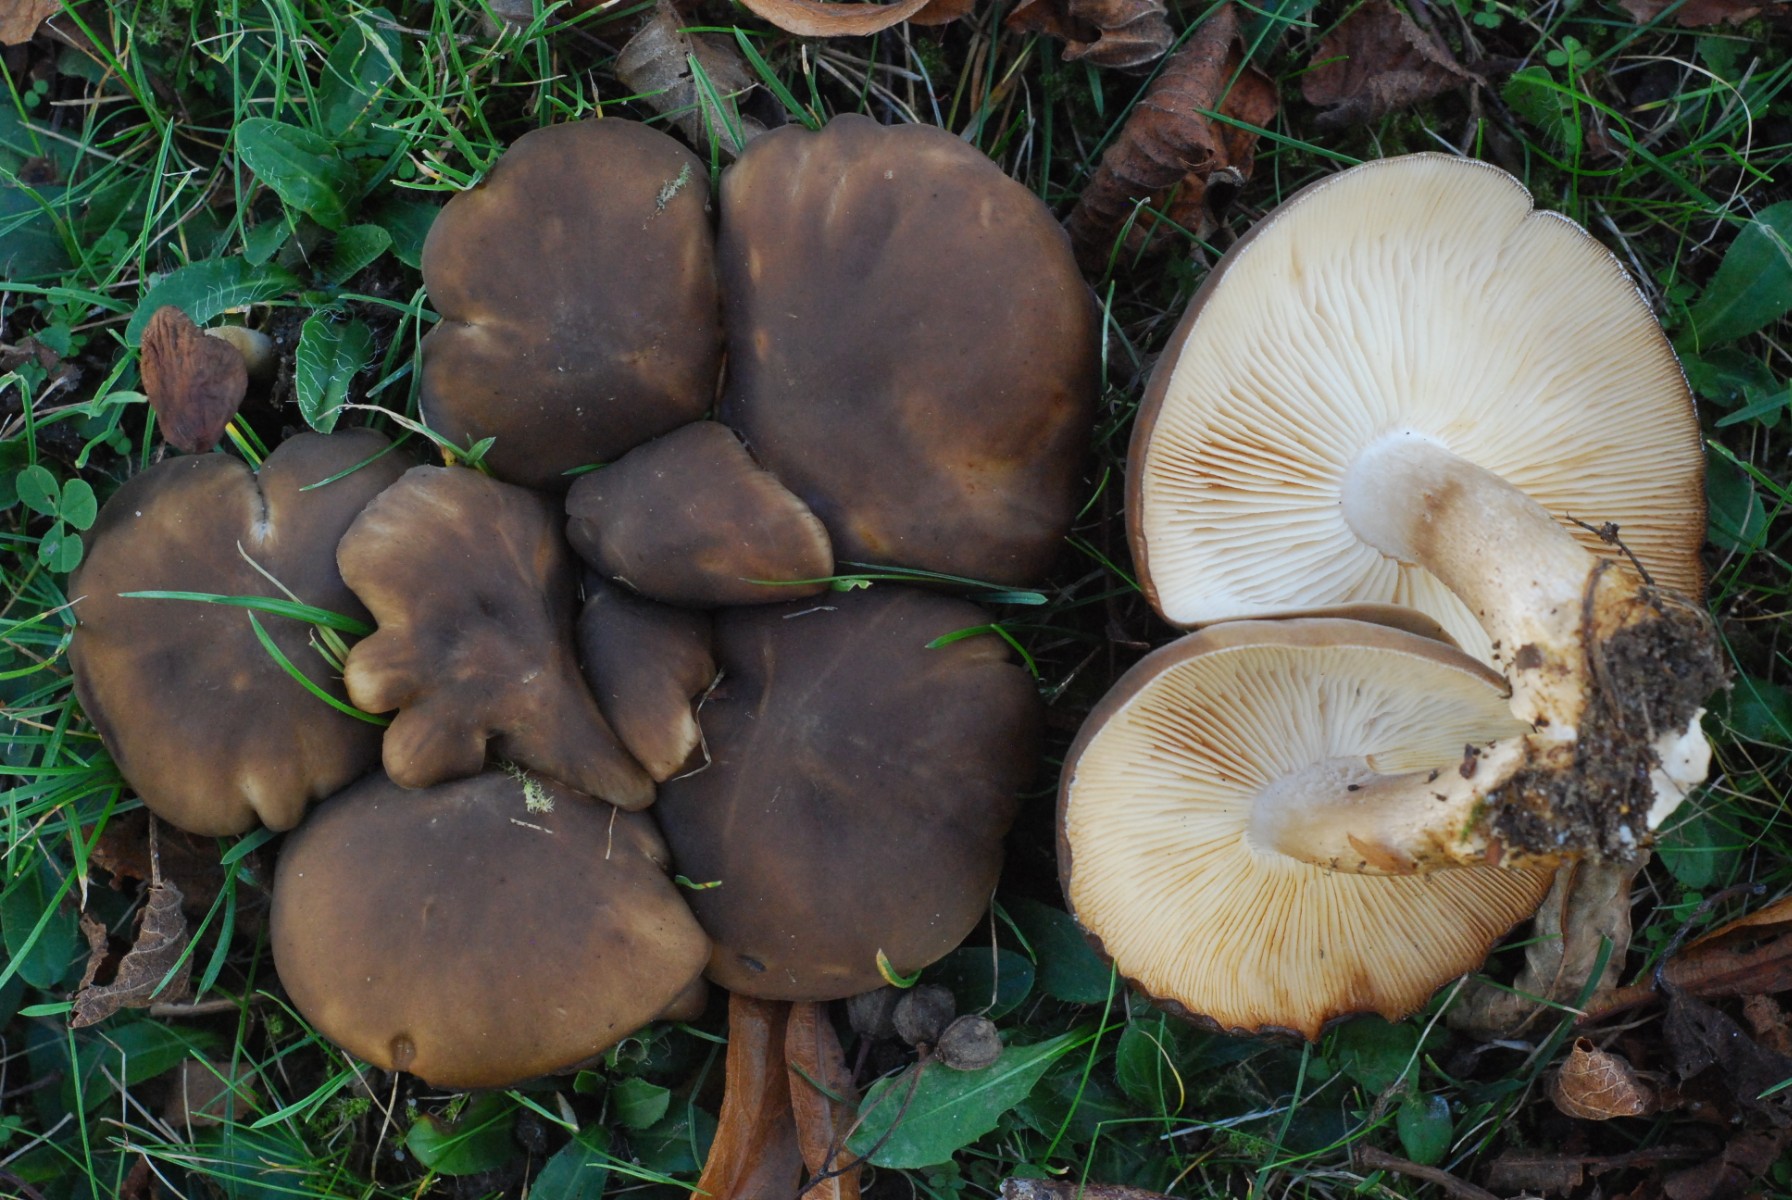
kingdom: Fungi
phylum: Basidiomycota
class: Agaricomycetes
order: Agaricales
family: Lyophyllaceae
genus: Lyophyllum
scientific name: Lyophyllum decastes
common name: røggrå gråblad
